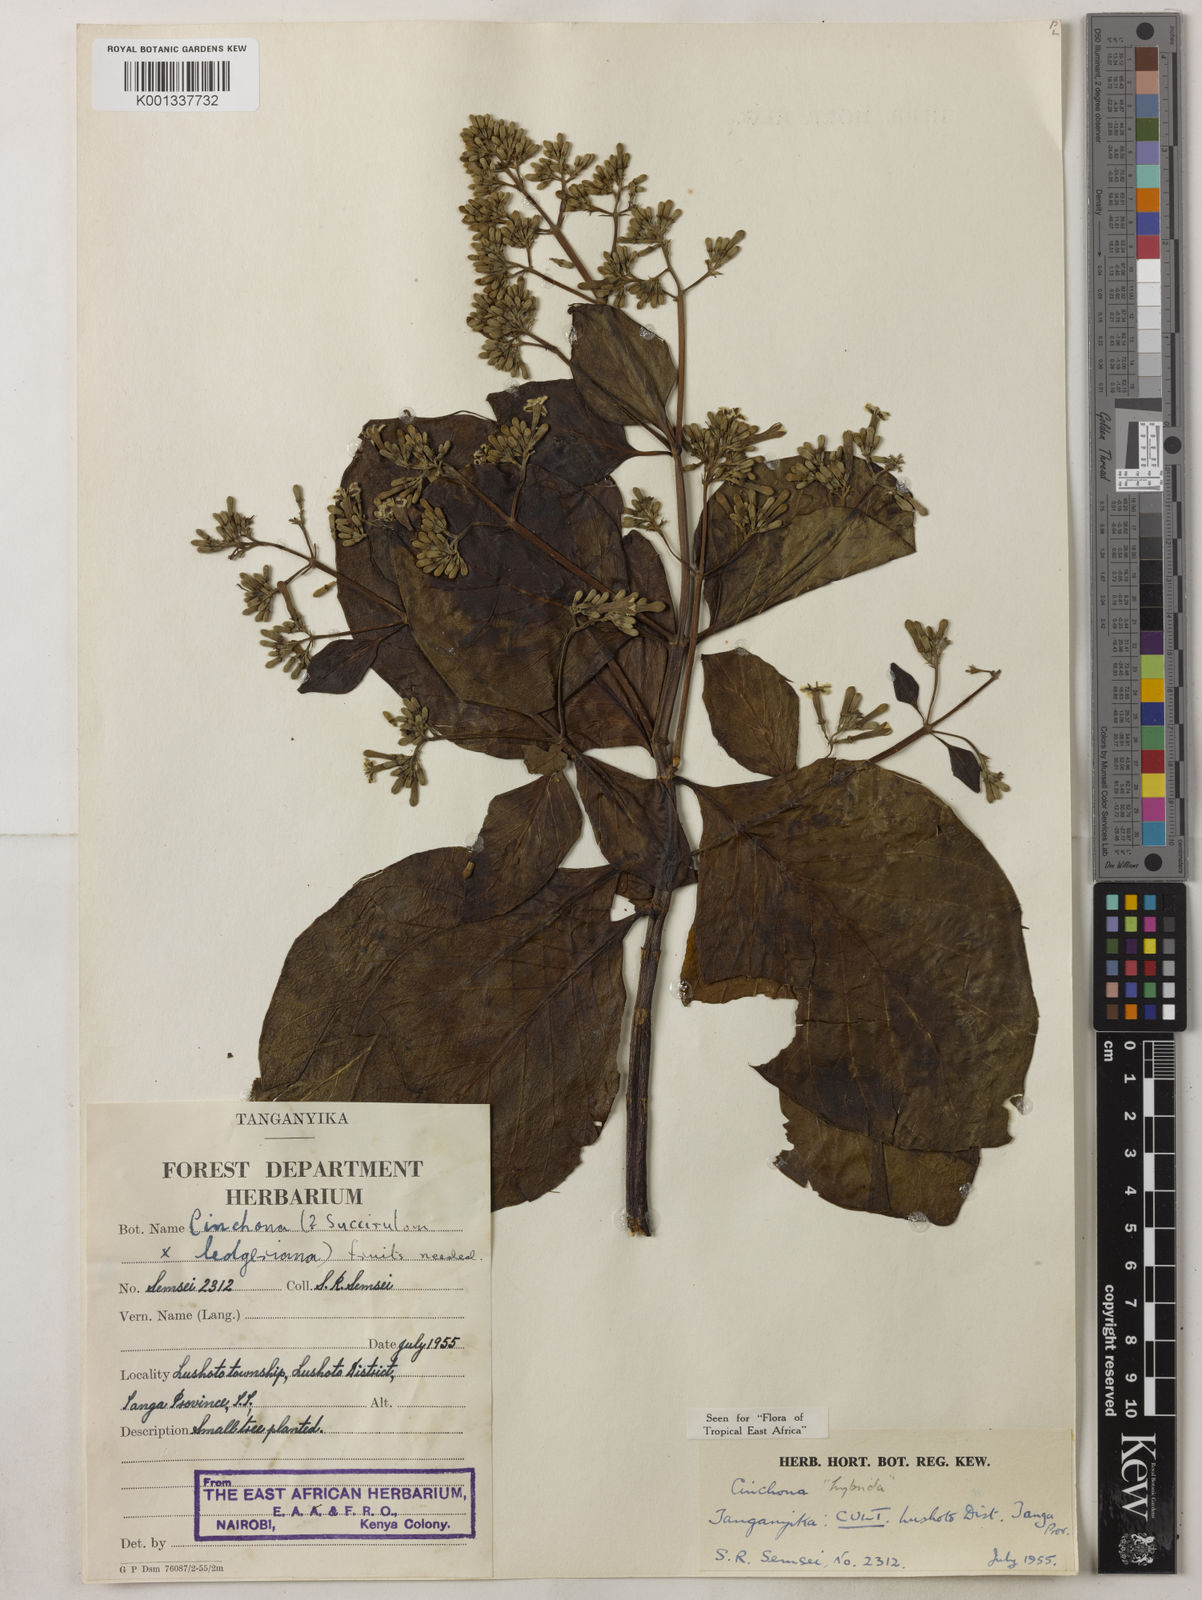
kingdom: Plantae
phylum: Tracheophyta
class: Magnoliopsida
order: Gentianales
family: Rubiaceae
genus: Cinchona
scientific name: Cinchona
